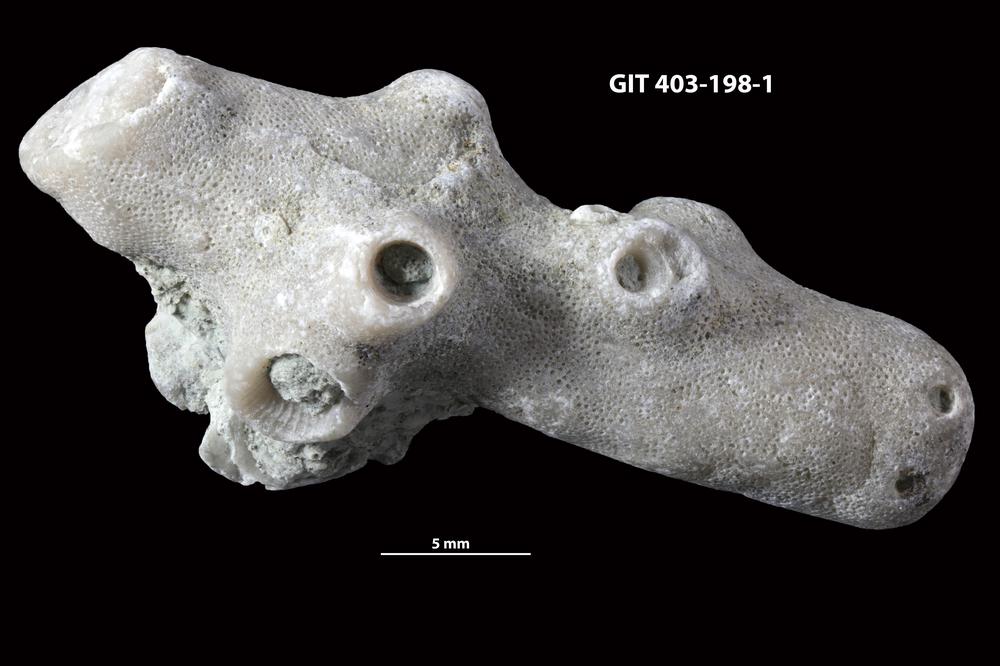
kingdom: Animalia
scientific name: Animalia
